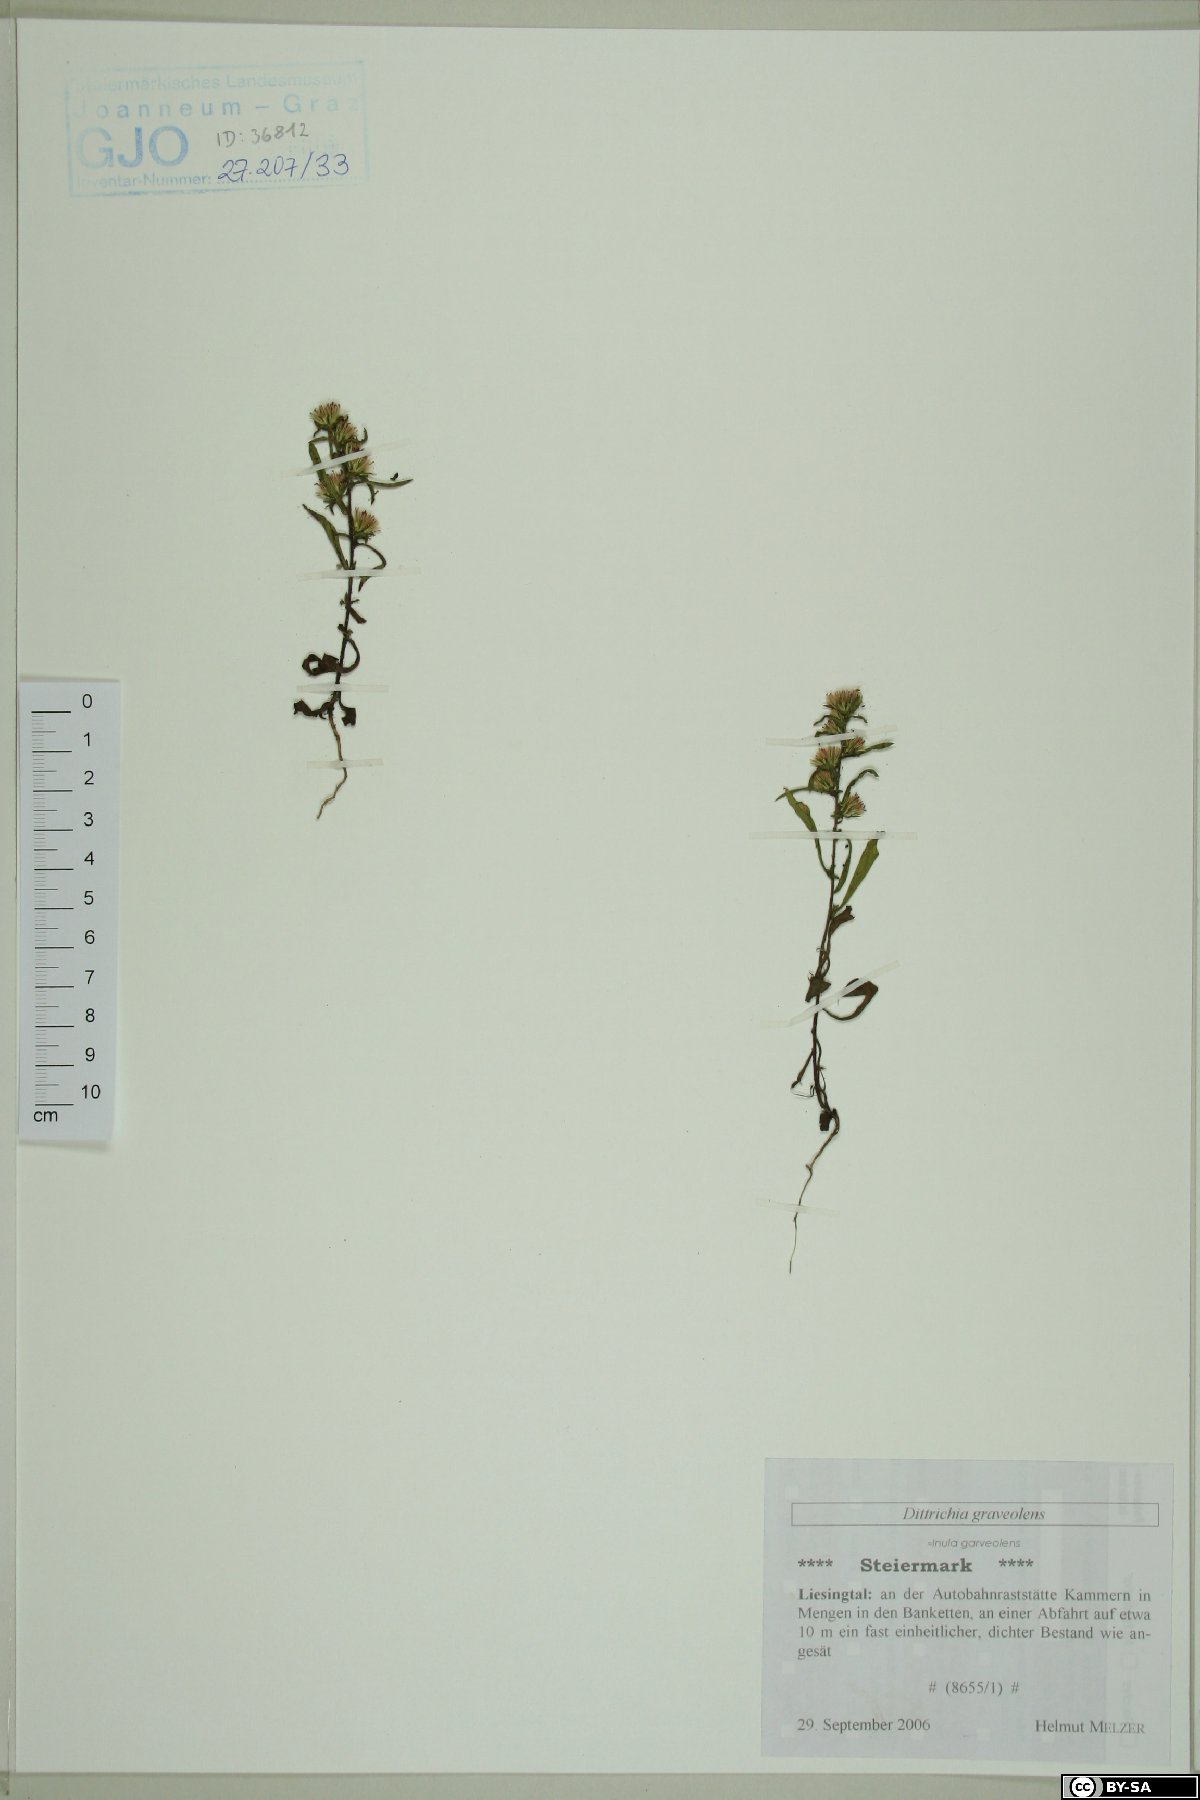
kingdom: Plantae
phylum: Tracheophyta
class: Magnoliopsida
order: Asterales
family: Asteraceae
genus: Dittrichia
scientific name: Dittrichia graveolens
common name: Stinking fleabane
